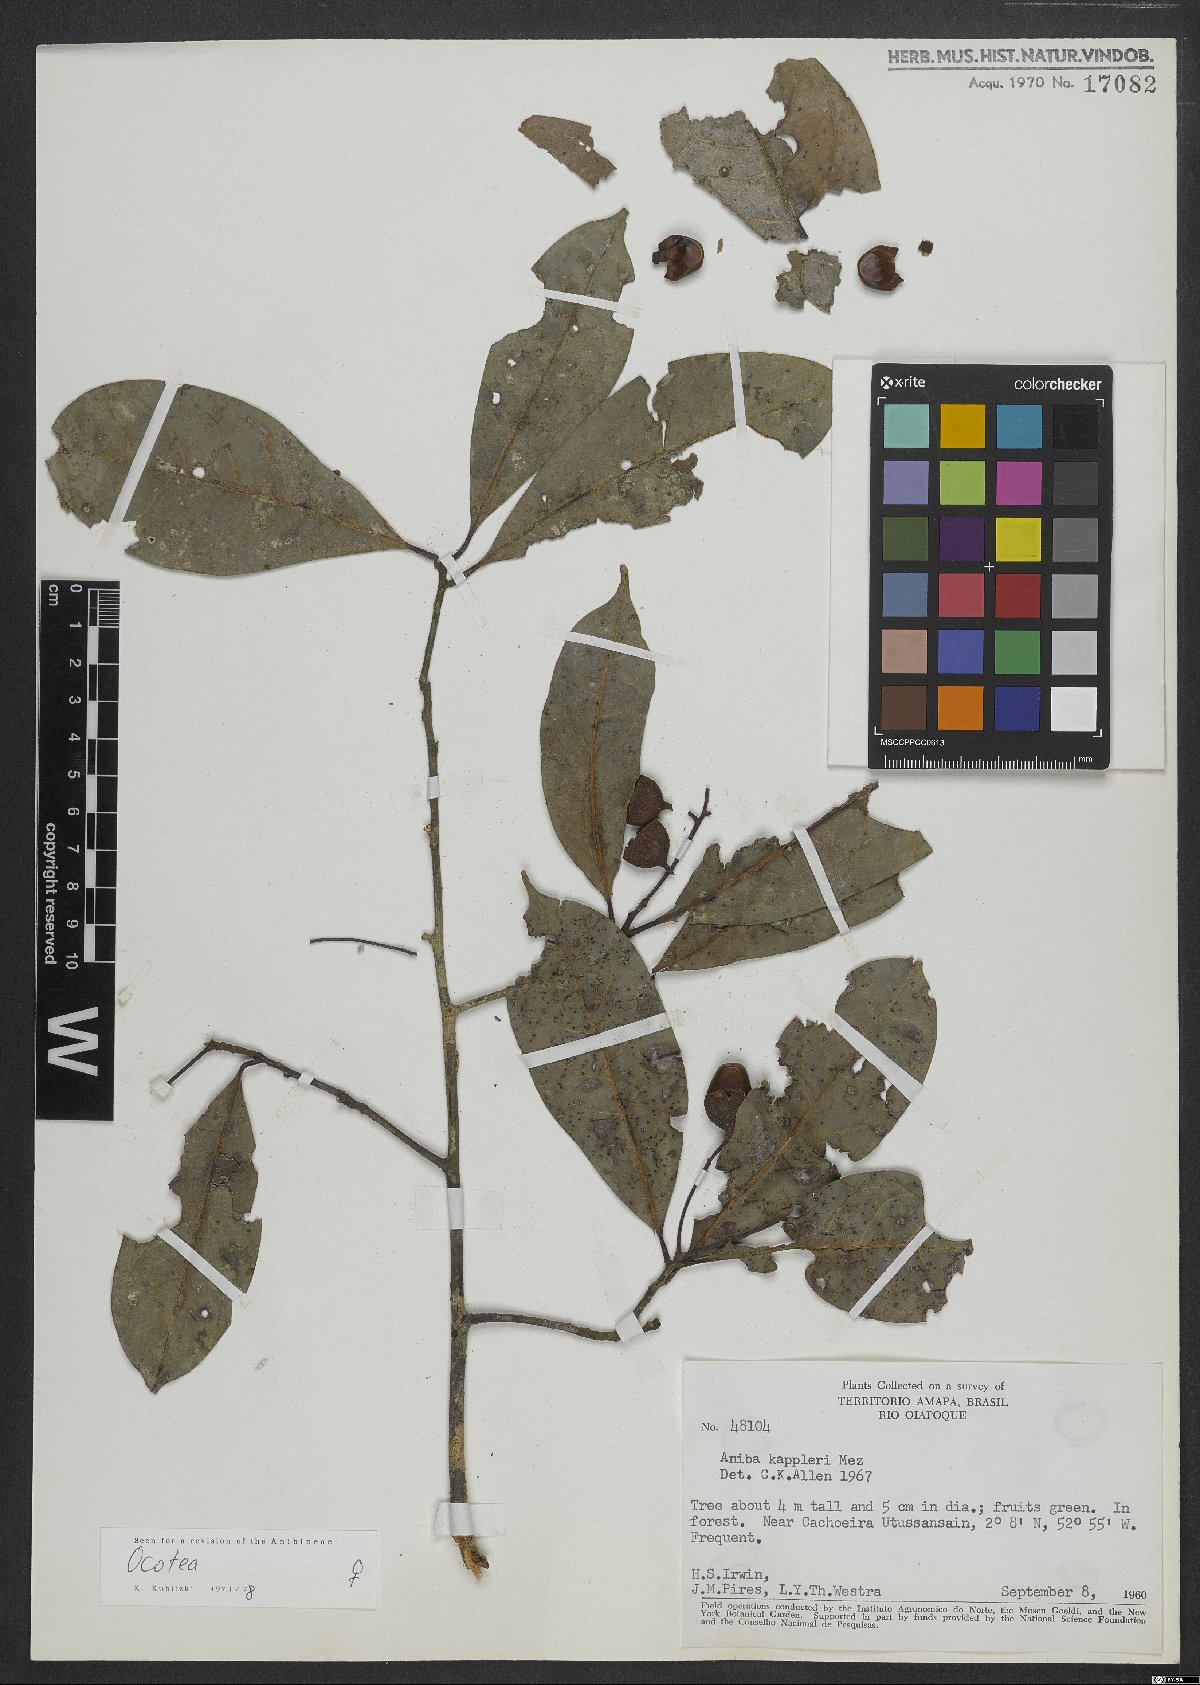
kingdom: Plantae
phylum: Tracheophyta
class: Magnoliopsida
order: Laurales
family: Lauraceae
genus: Ocotea
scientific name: Ocotea
